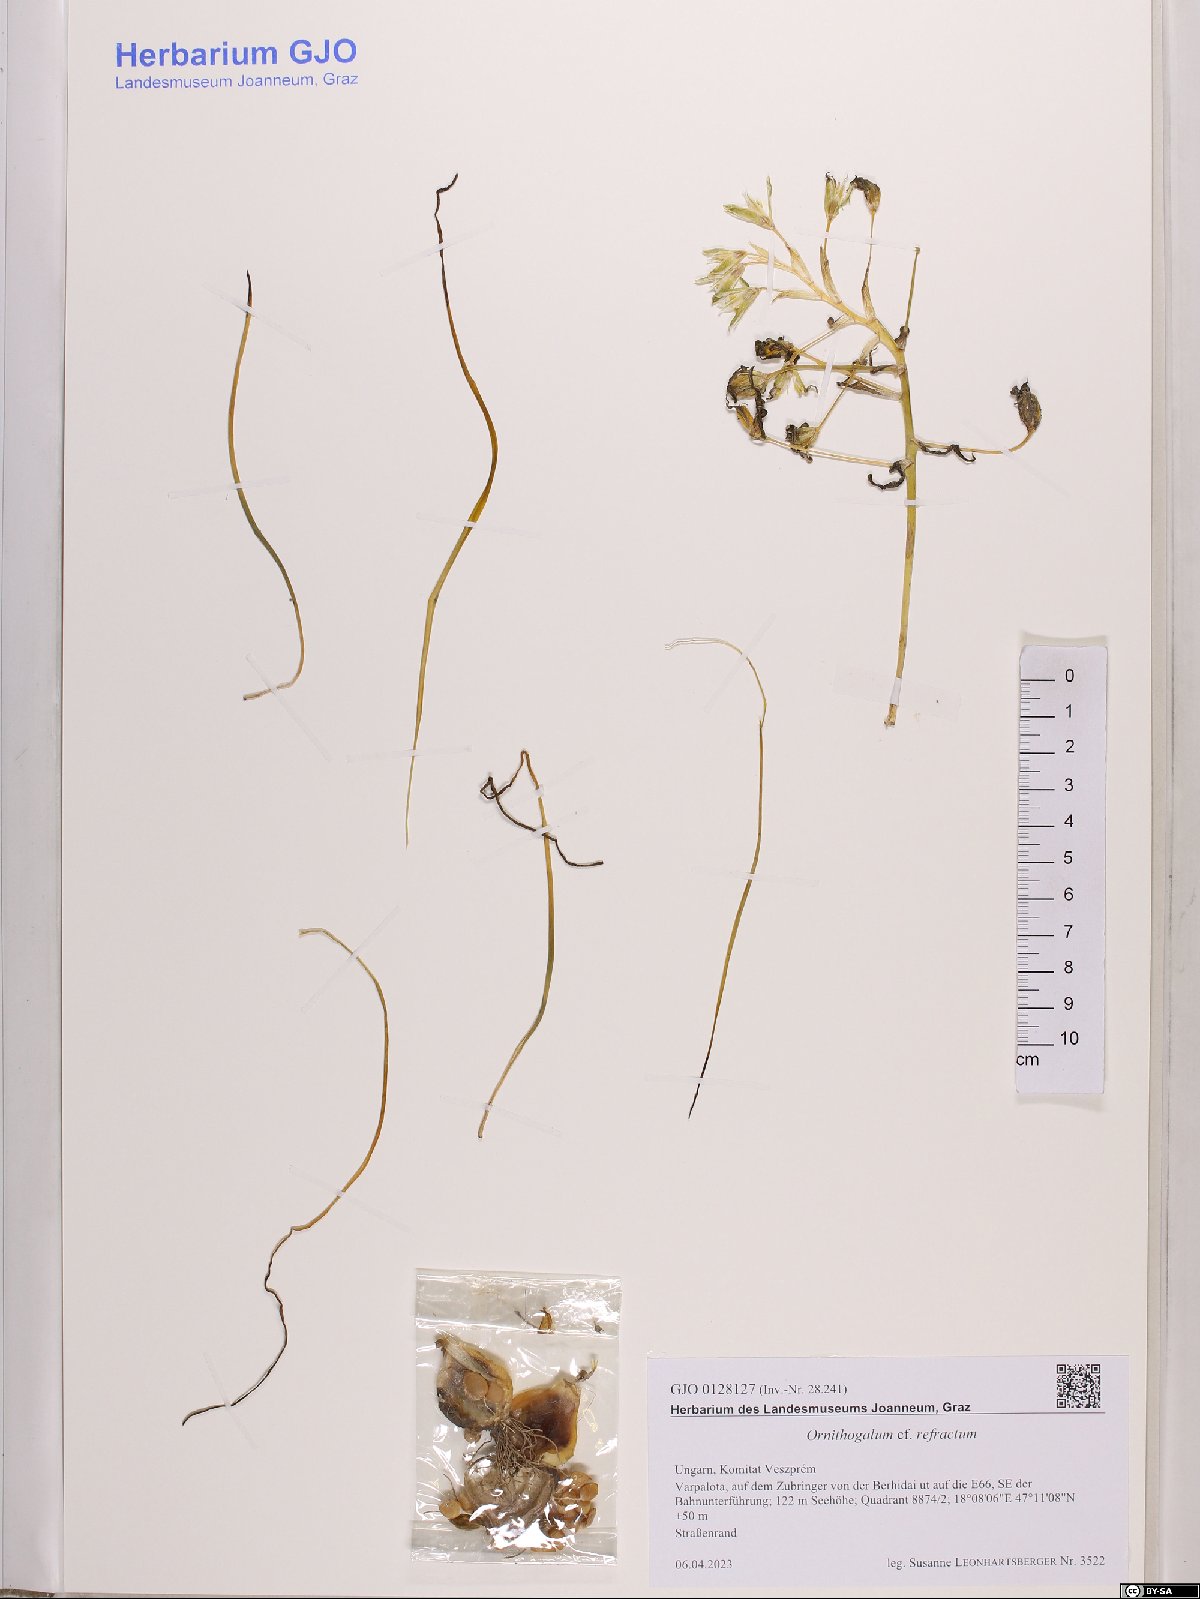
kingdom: Plantae
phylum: Tracheophyta
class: Liliopsida
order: Asparagales
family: Asparagaceae
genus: Ornithogalum
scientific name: Ornithogalum refractum
